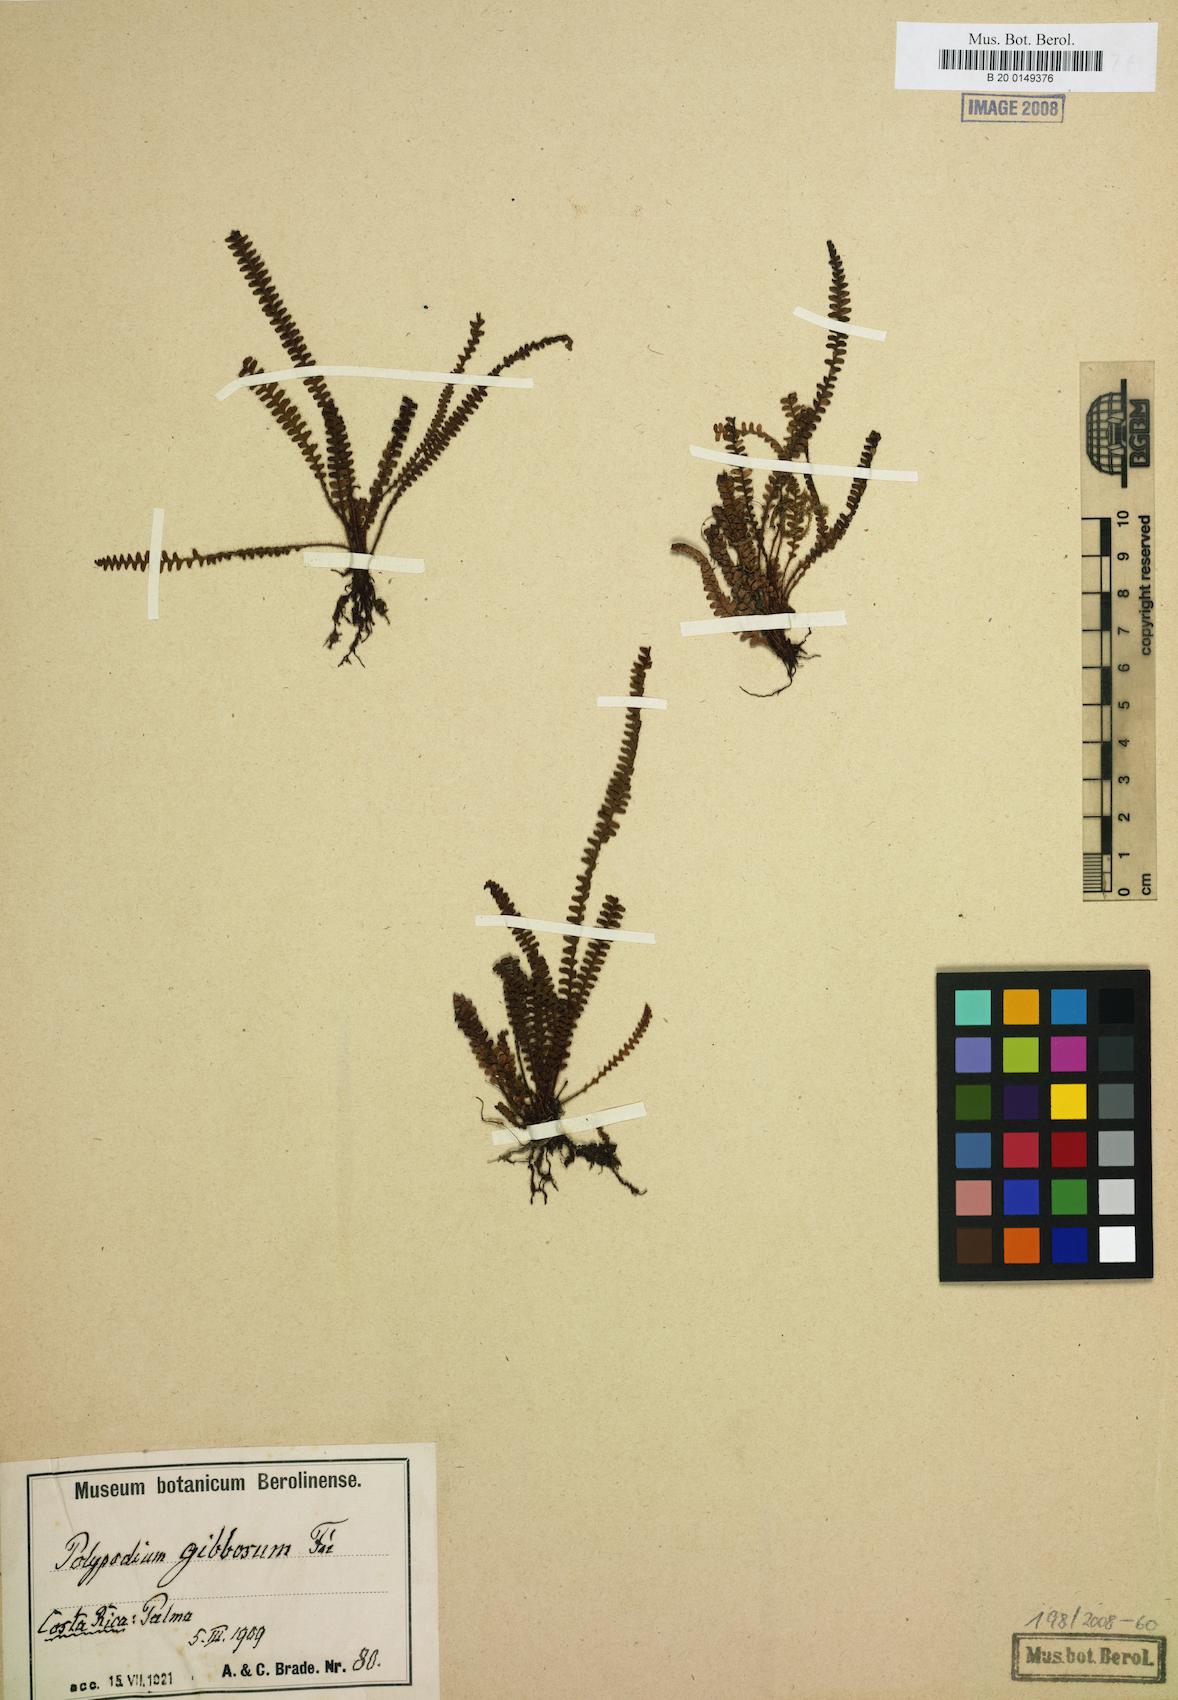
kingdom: Plantae
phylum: Tracheophyta
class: Polypodiopsida
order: Polypodiales
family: Polypodiaceae
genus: Moranopteris
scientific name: Moranopteris taenifolia
